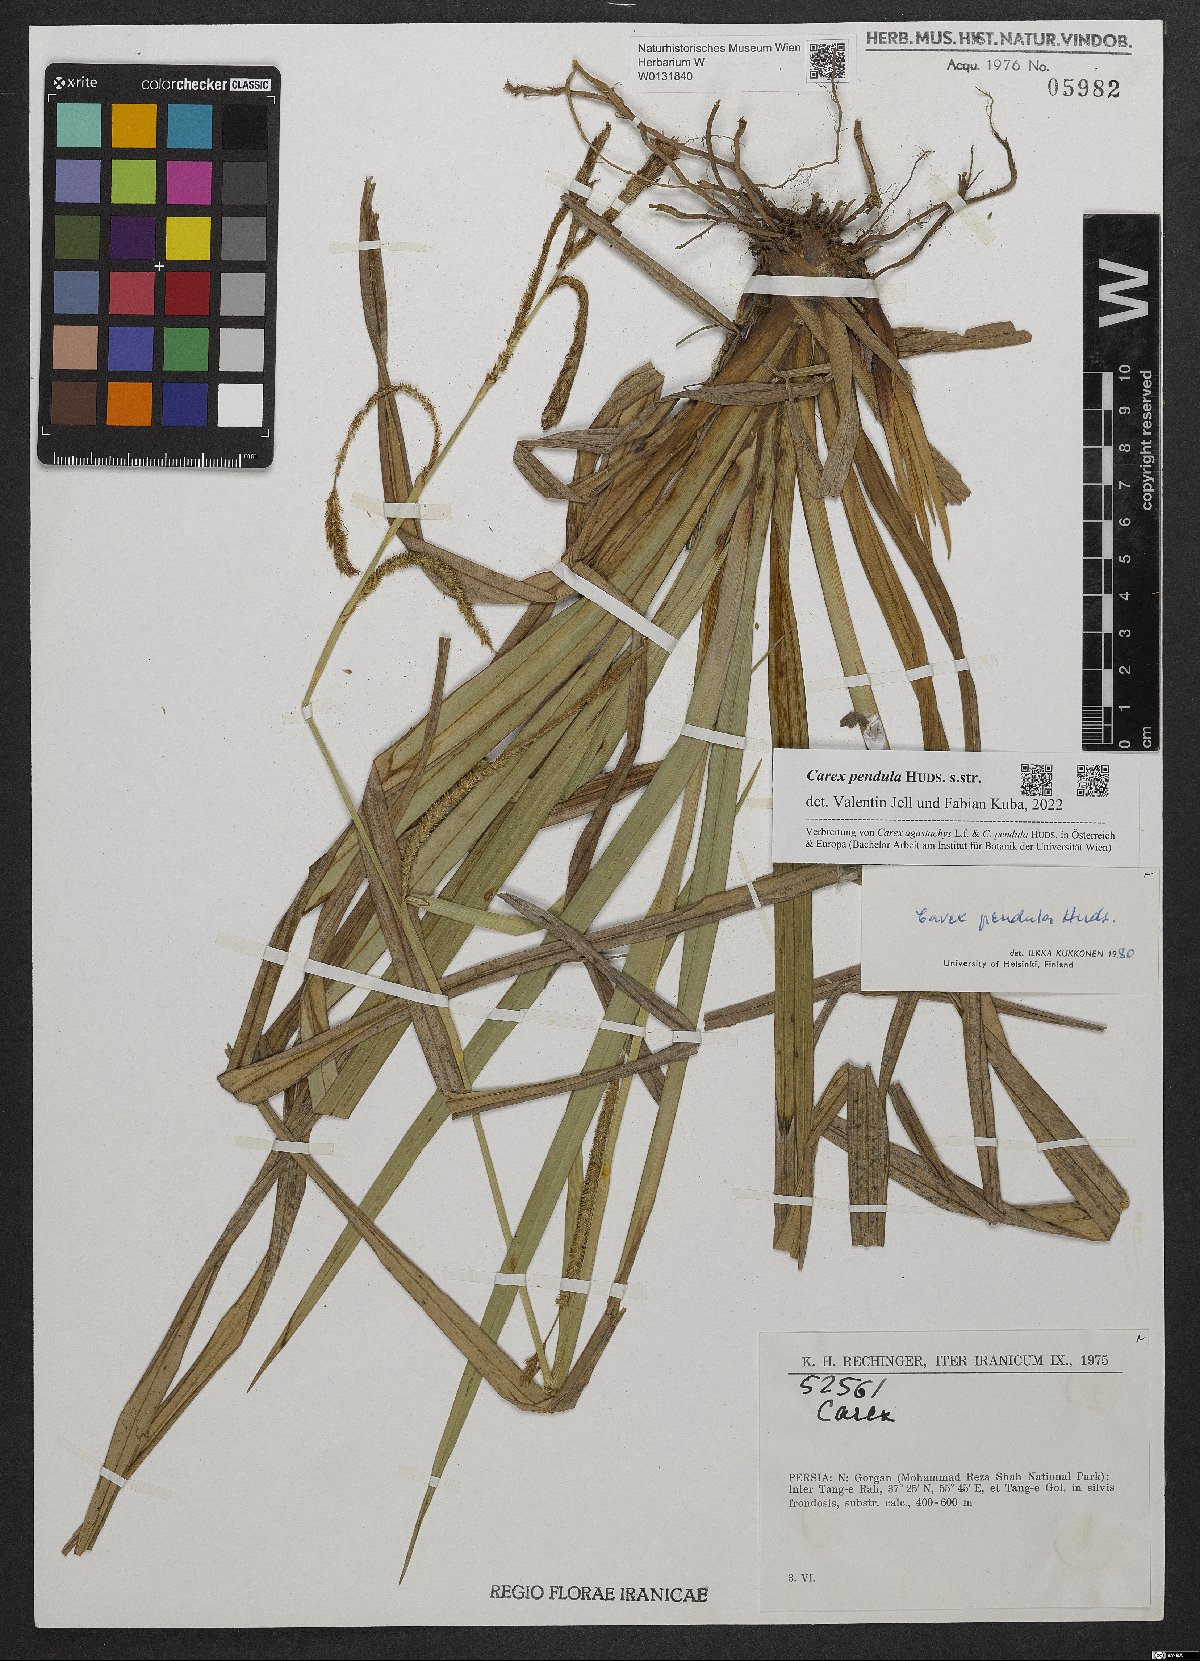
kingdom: Plantae
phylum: Tracheophyta
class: Liliopsida
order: Poales
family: Cyperaceae
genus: Carex
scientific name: Carex pendula
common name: Pendulous sedge
